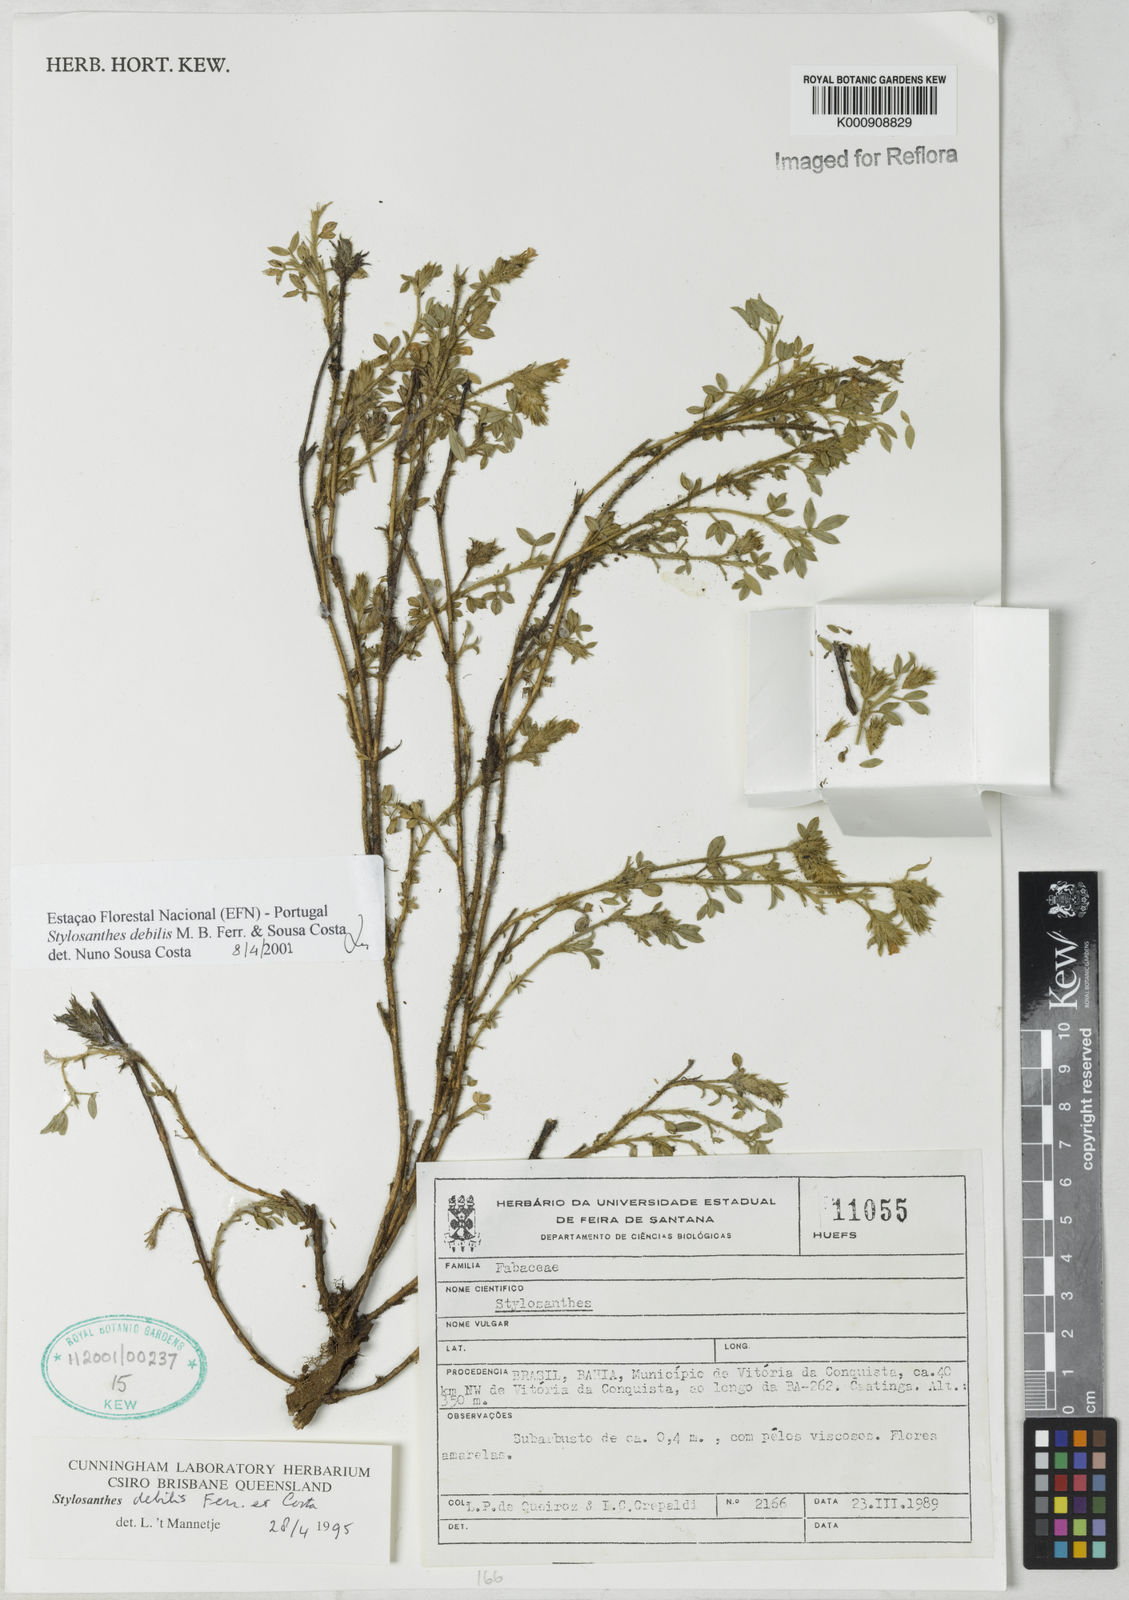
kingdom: Plantae
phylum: Tracheophyta
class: Magnoliopsida
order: Fabales
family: Fabaceae
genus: Stylosanthes
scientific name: Stylosanthes viscosa
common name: Viscid pencil-flower
